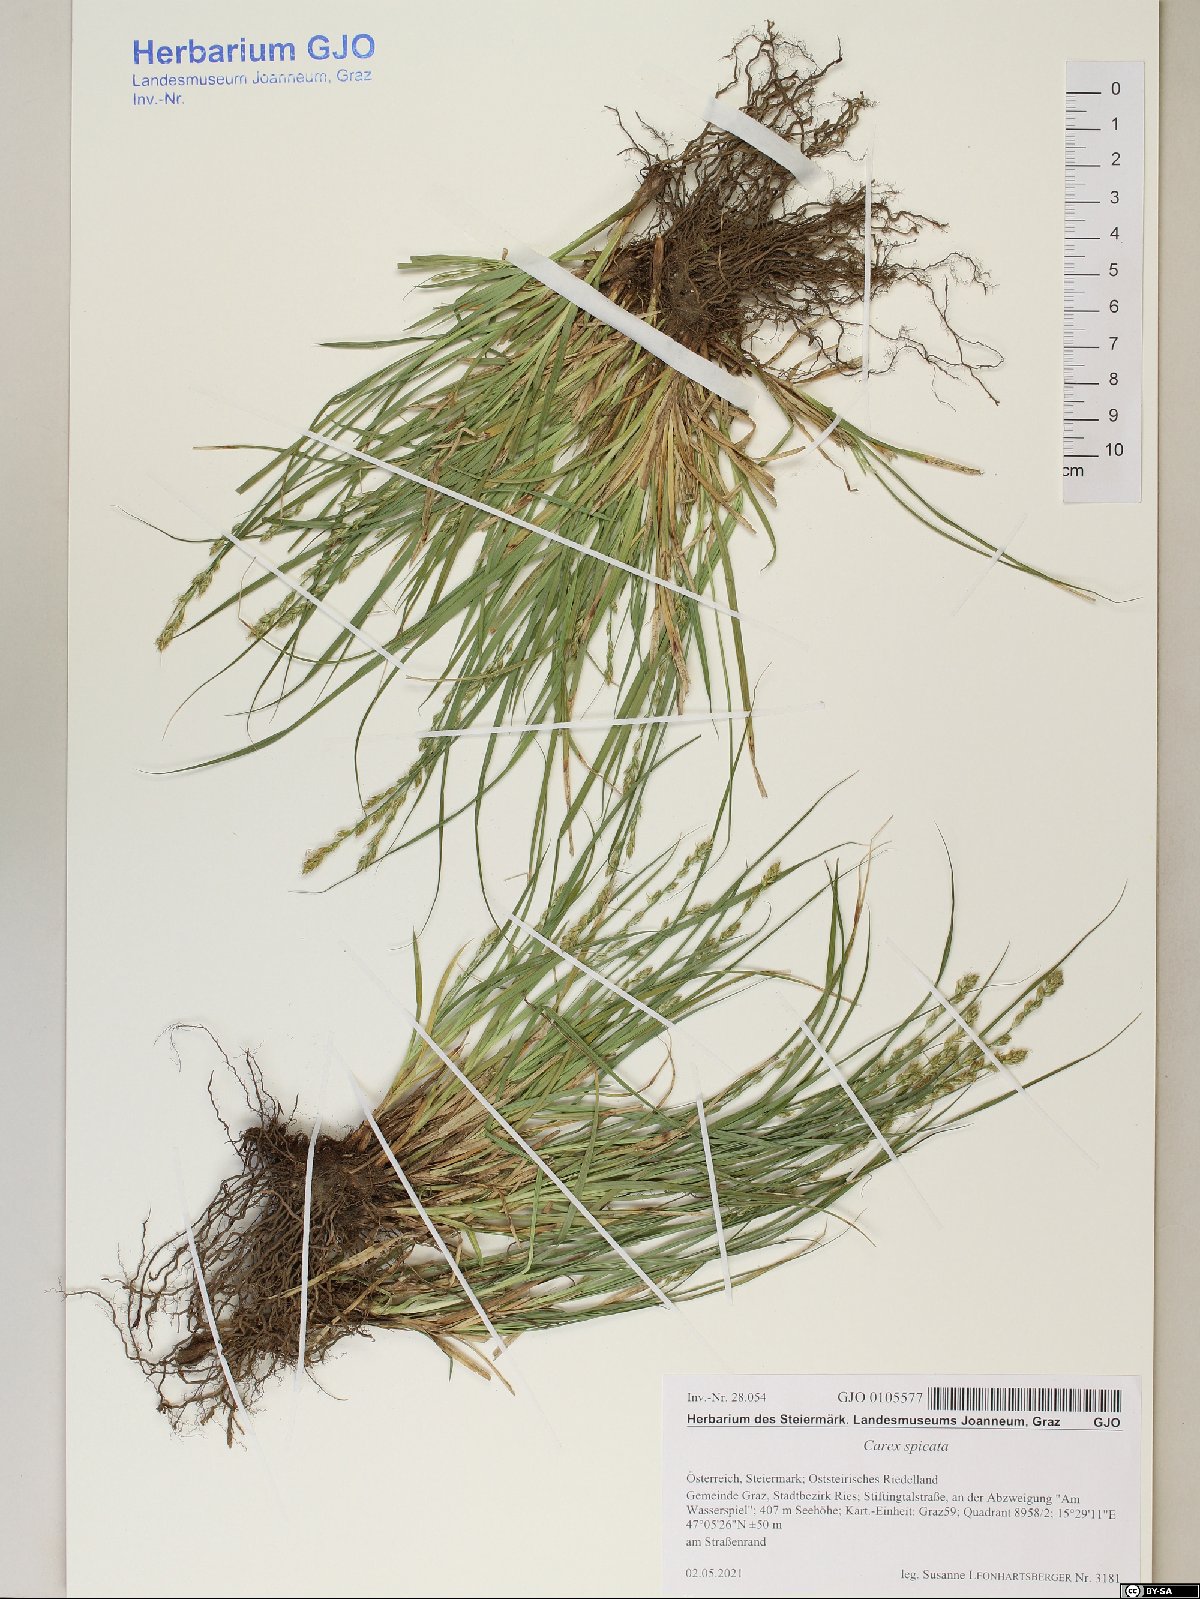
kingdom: Plantae
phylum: Tracheophyta
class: Liliopsida
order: Poales
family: Cyperaceae
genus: Carex
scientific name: Carex spicata
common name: Spiked sedge
